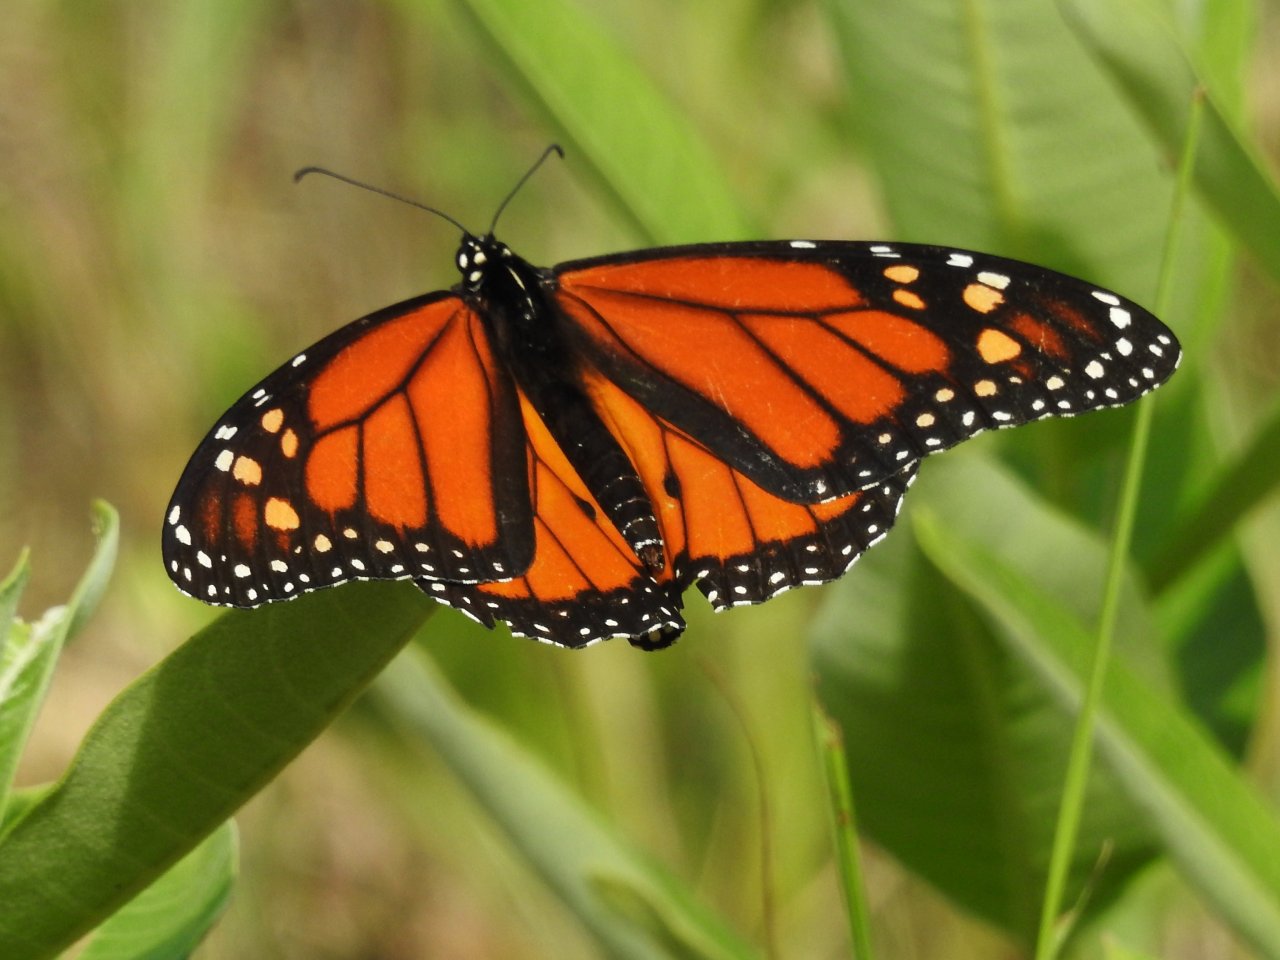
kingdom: Animalia
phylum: Arthropoda
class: Insecta
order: Lepidoptera
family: Nymphalidae
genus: Danaus
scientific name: Danaus plexippus
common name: Monarch
